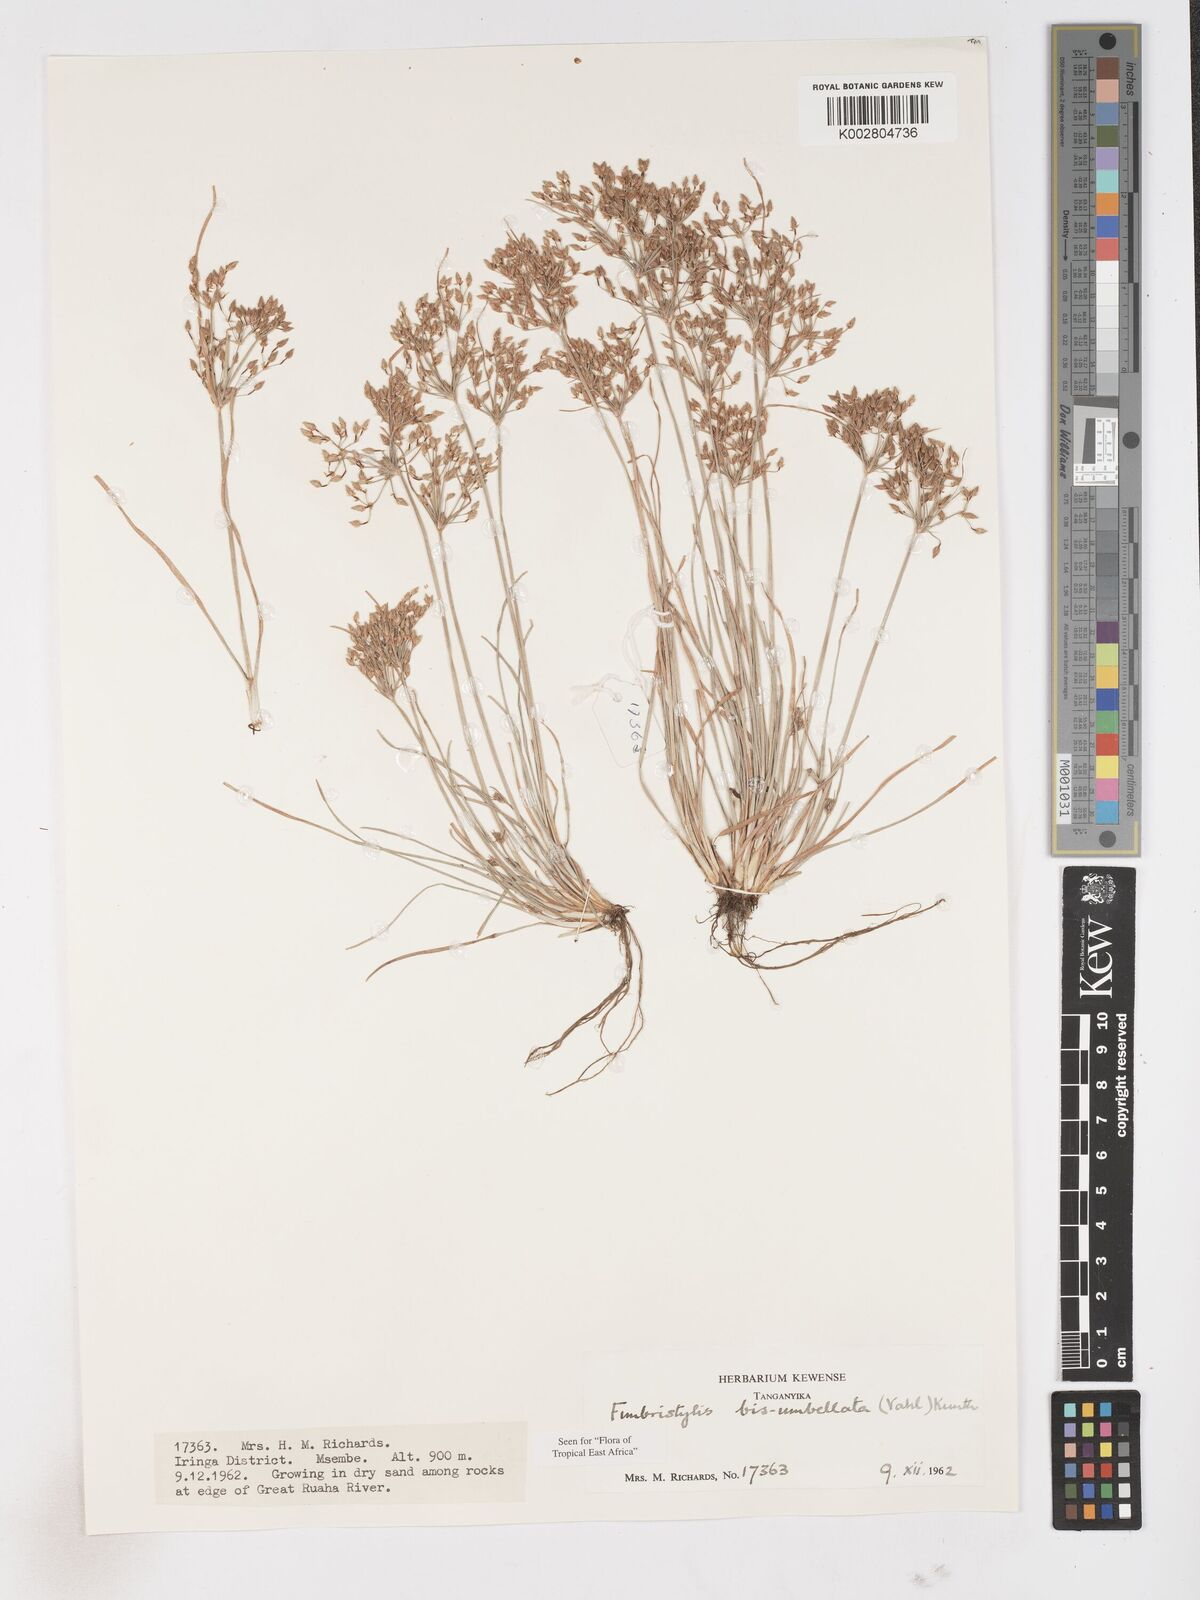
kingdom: Plantae
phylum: Tracheophyta
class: Liliopsida
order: Poales
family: Cyperaceae
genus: Fimbristylis
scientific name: Fimbristylis bisumbellata
